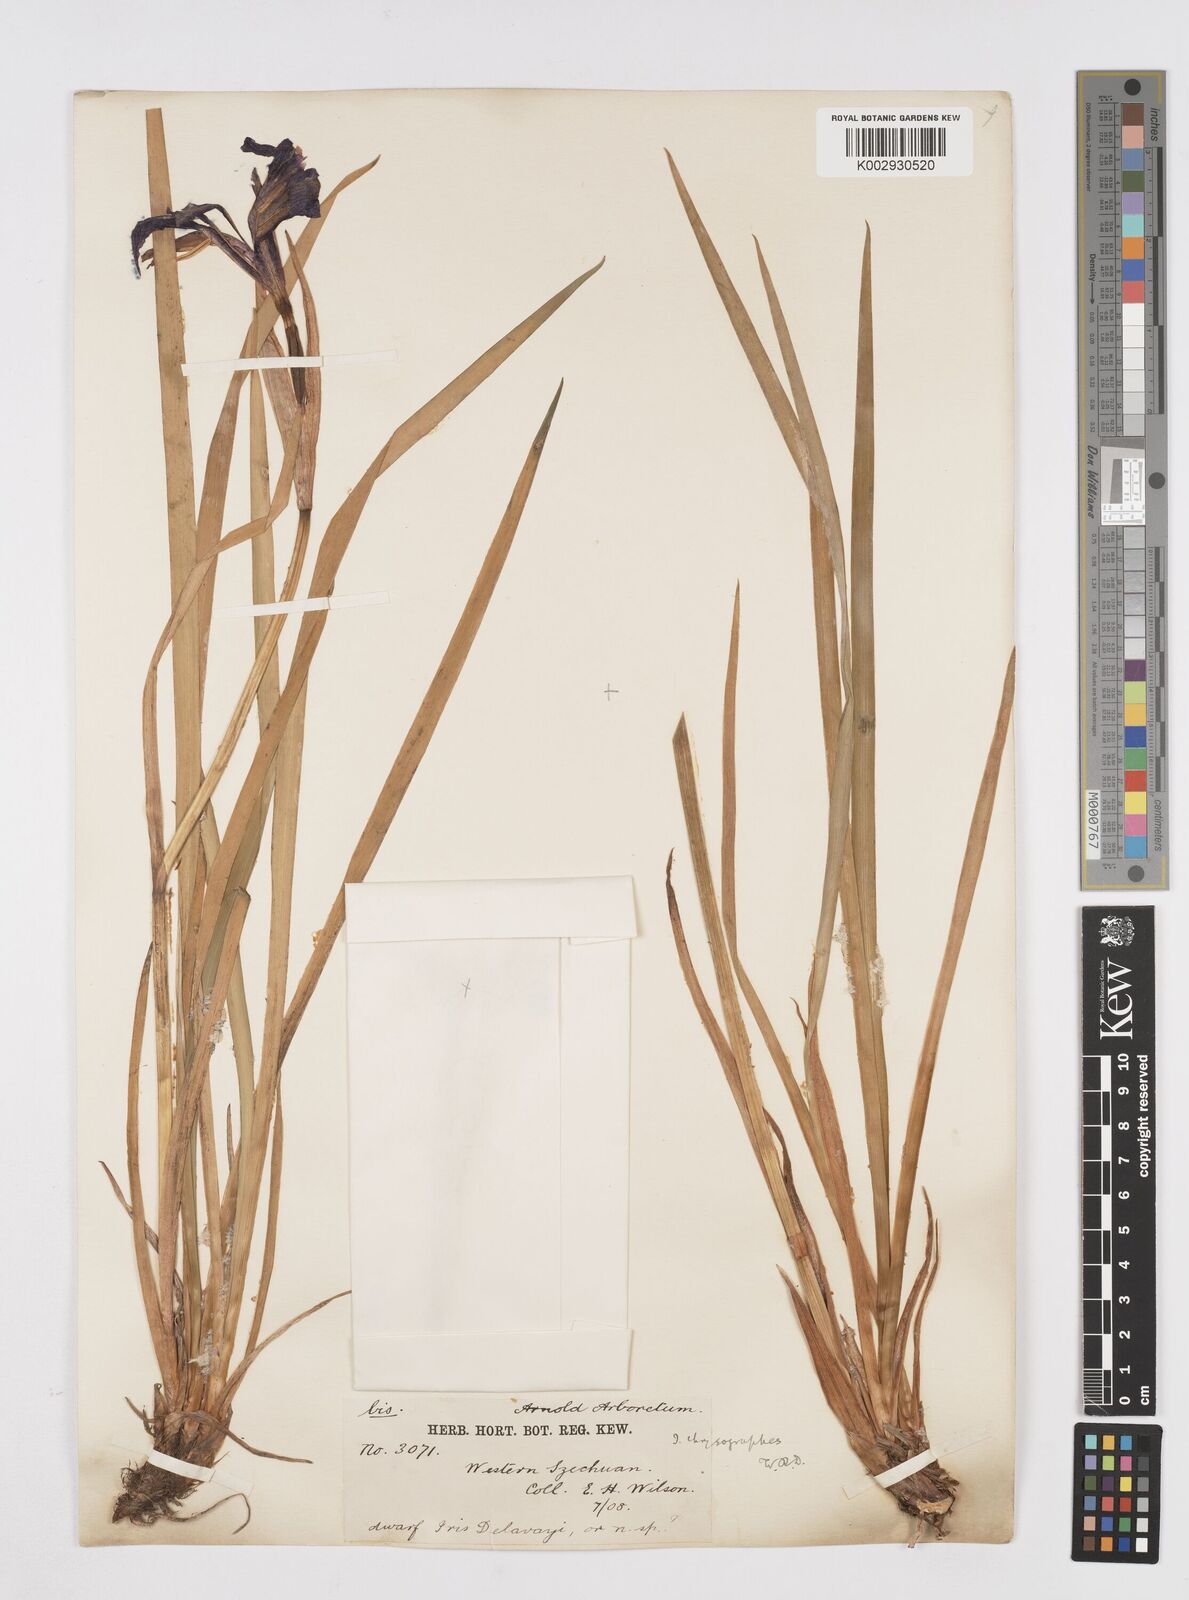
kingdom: Plantae
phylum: Tracheophyta
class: Liliopsida
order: Asparagales
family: Iridaceae
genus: Iris
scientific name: Iris chrysographes
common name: Gold-vein iris
